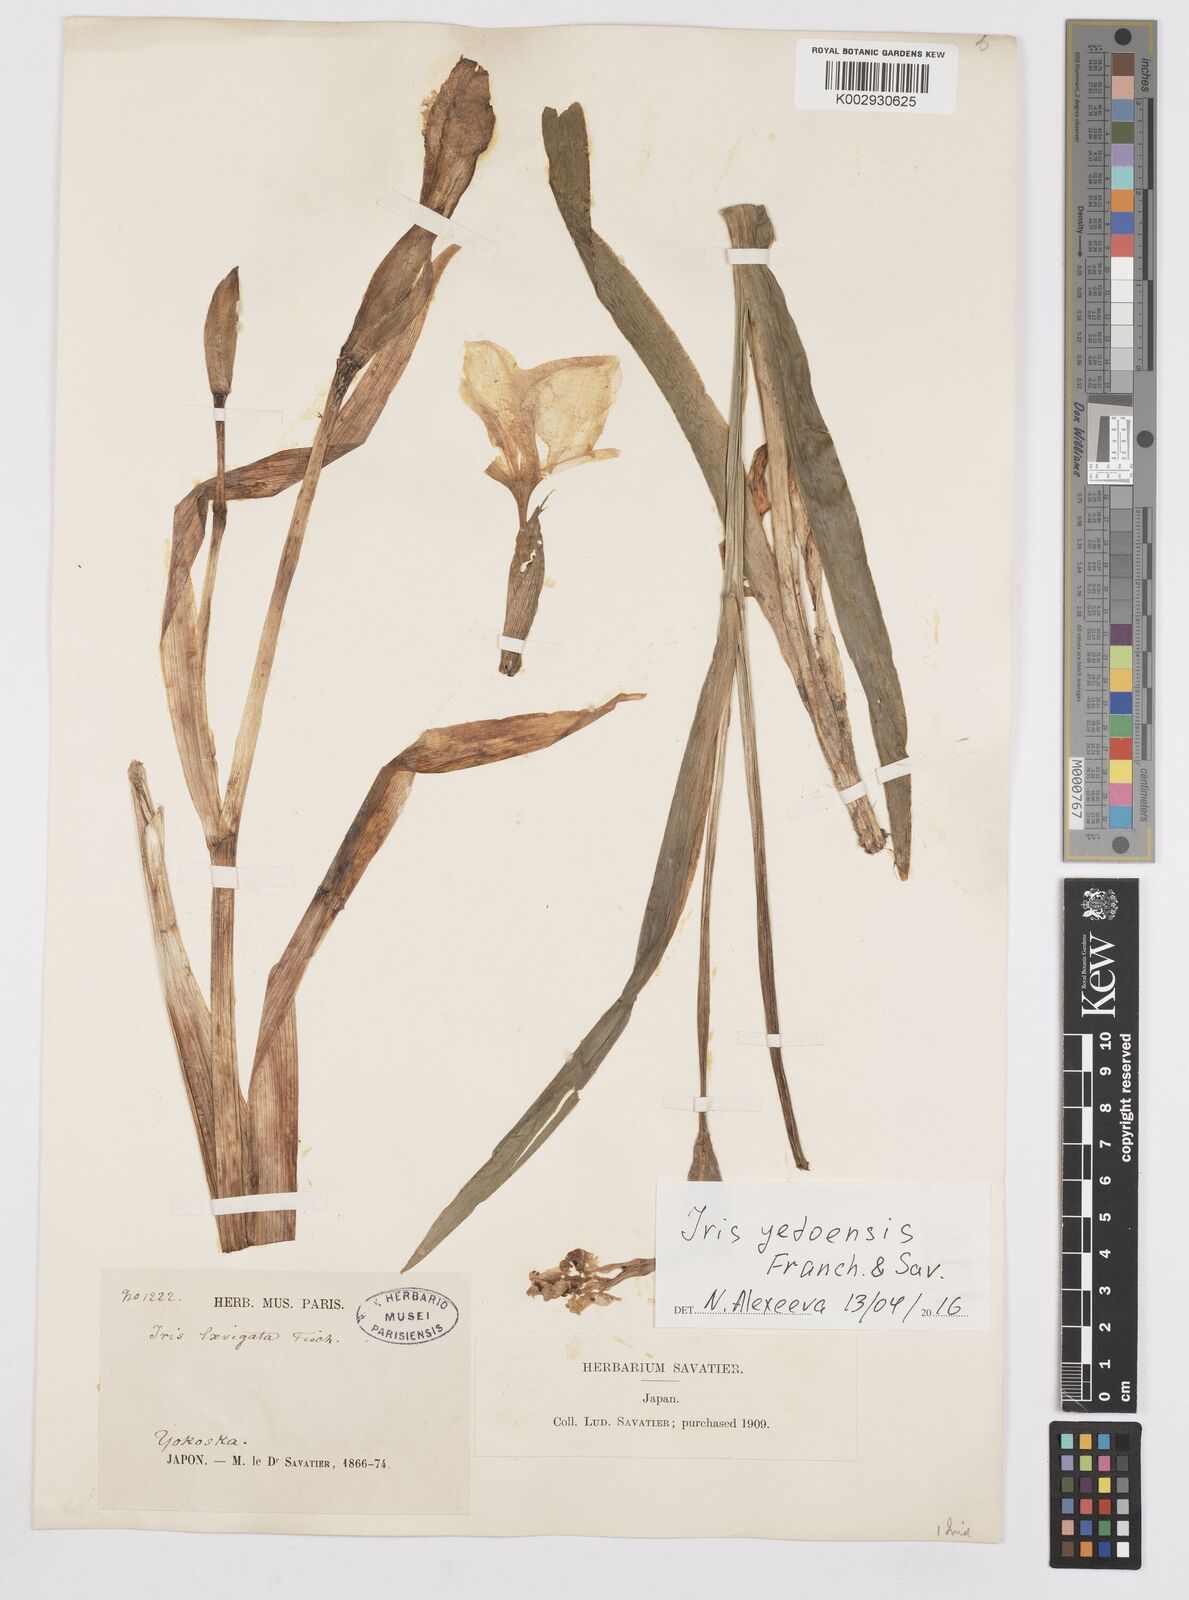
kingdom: Plantae
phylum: Tracheophyta
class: Liliopsida
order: Asparagales
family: Iridaceae
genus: Iris
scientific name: Iris laevigata
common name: Japanese iris
